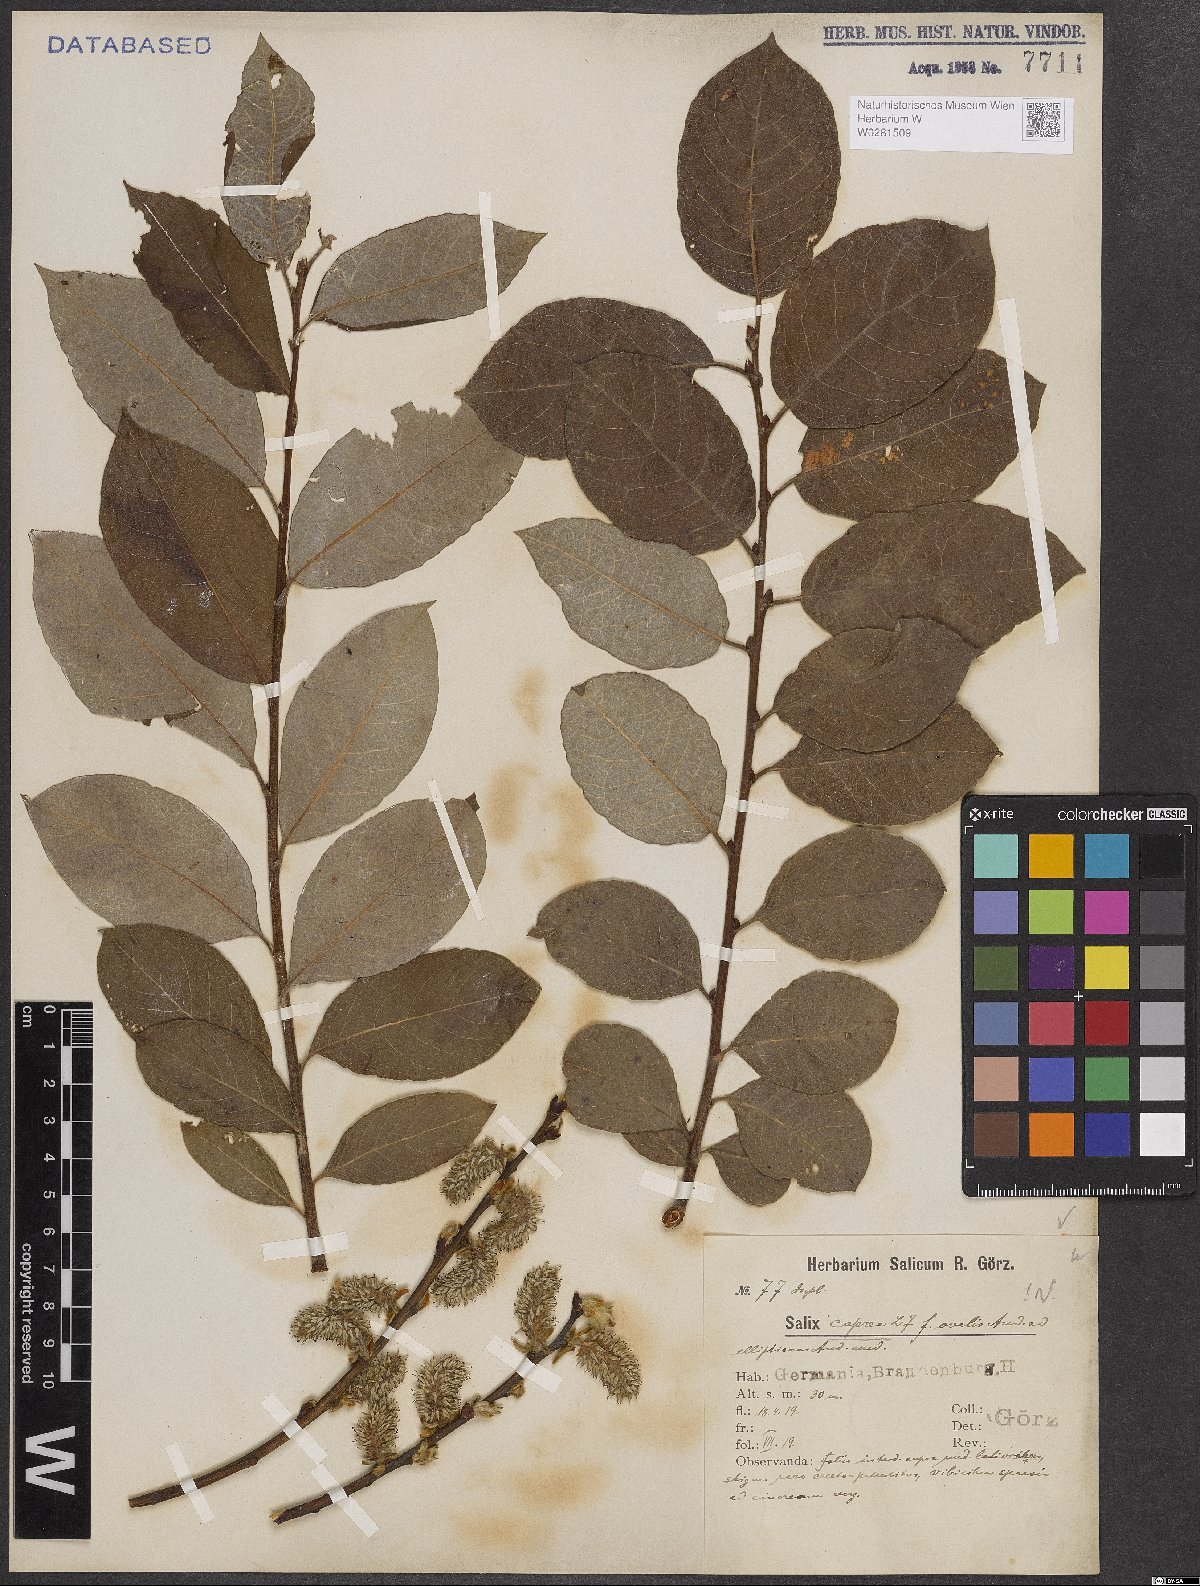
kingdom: Plantae
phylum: Tracheophyta
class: Magnoliopsida
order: Malpighiales
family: Salicaceae
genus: Salix
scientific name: Salix caprea
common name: Goat willow
